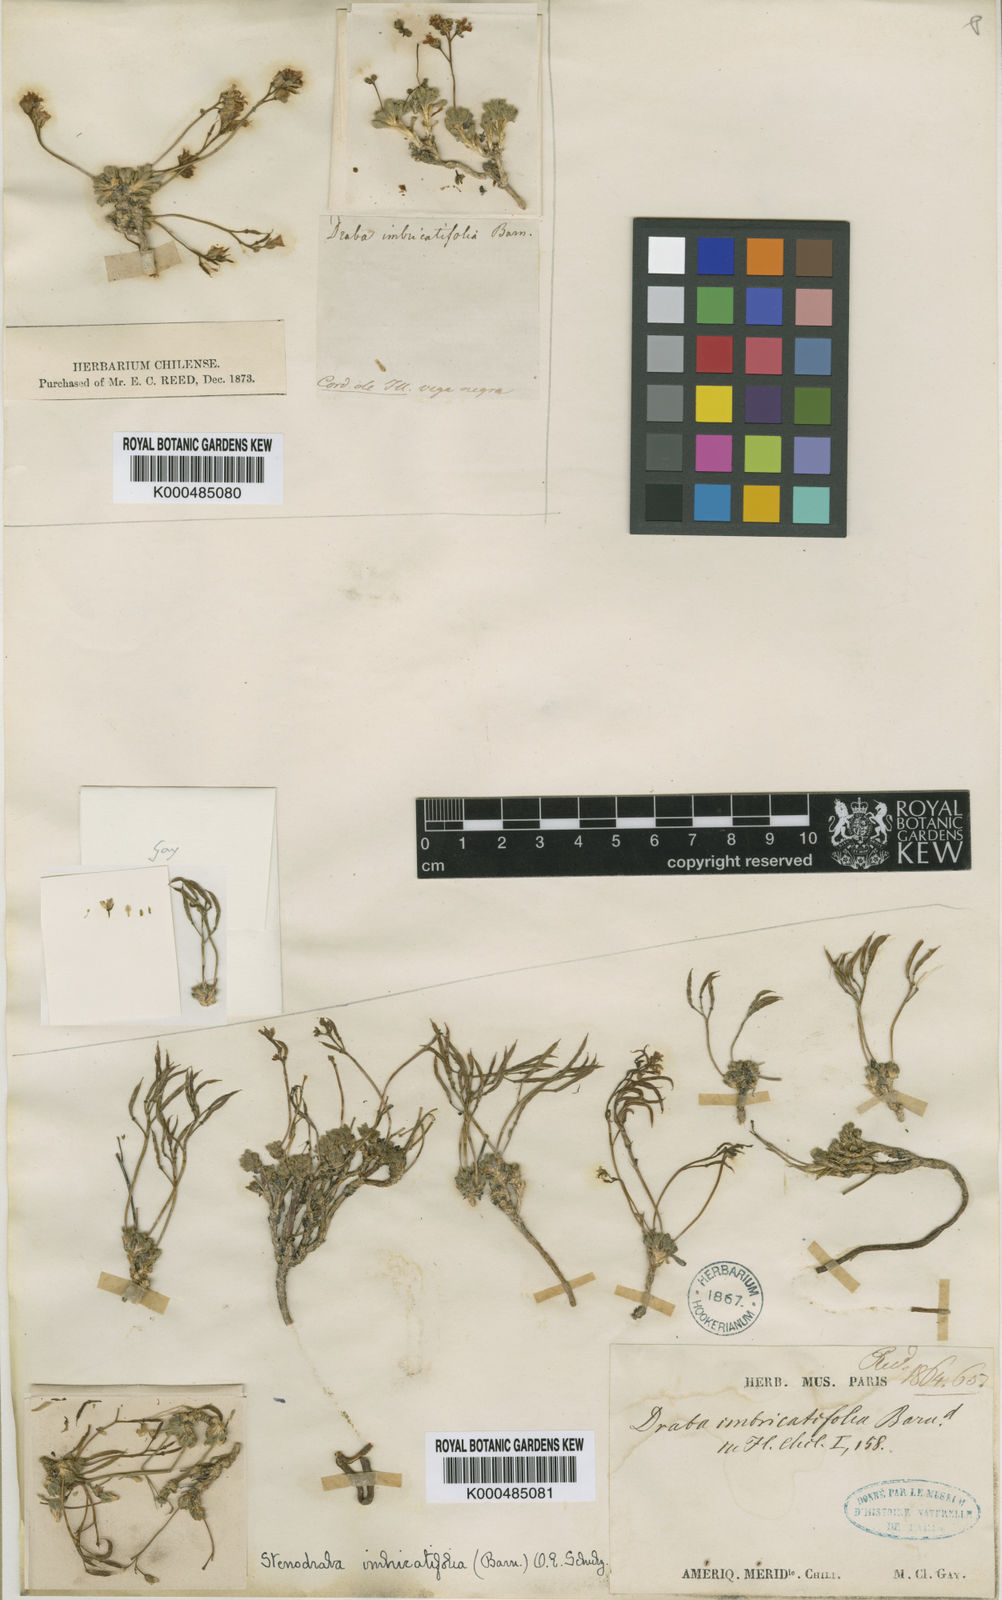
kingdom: Plantae
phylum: Tracheophyta
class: Magnoliopsida
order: Brassicales
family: Brassicaceae
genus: Weberbauera
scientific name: Weberbauera
